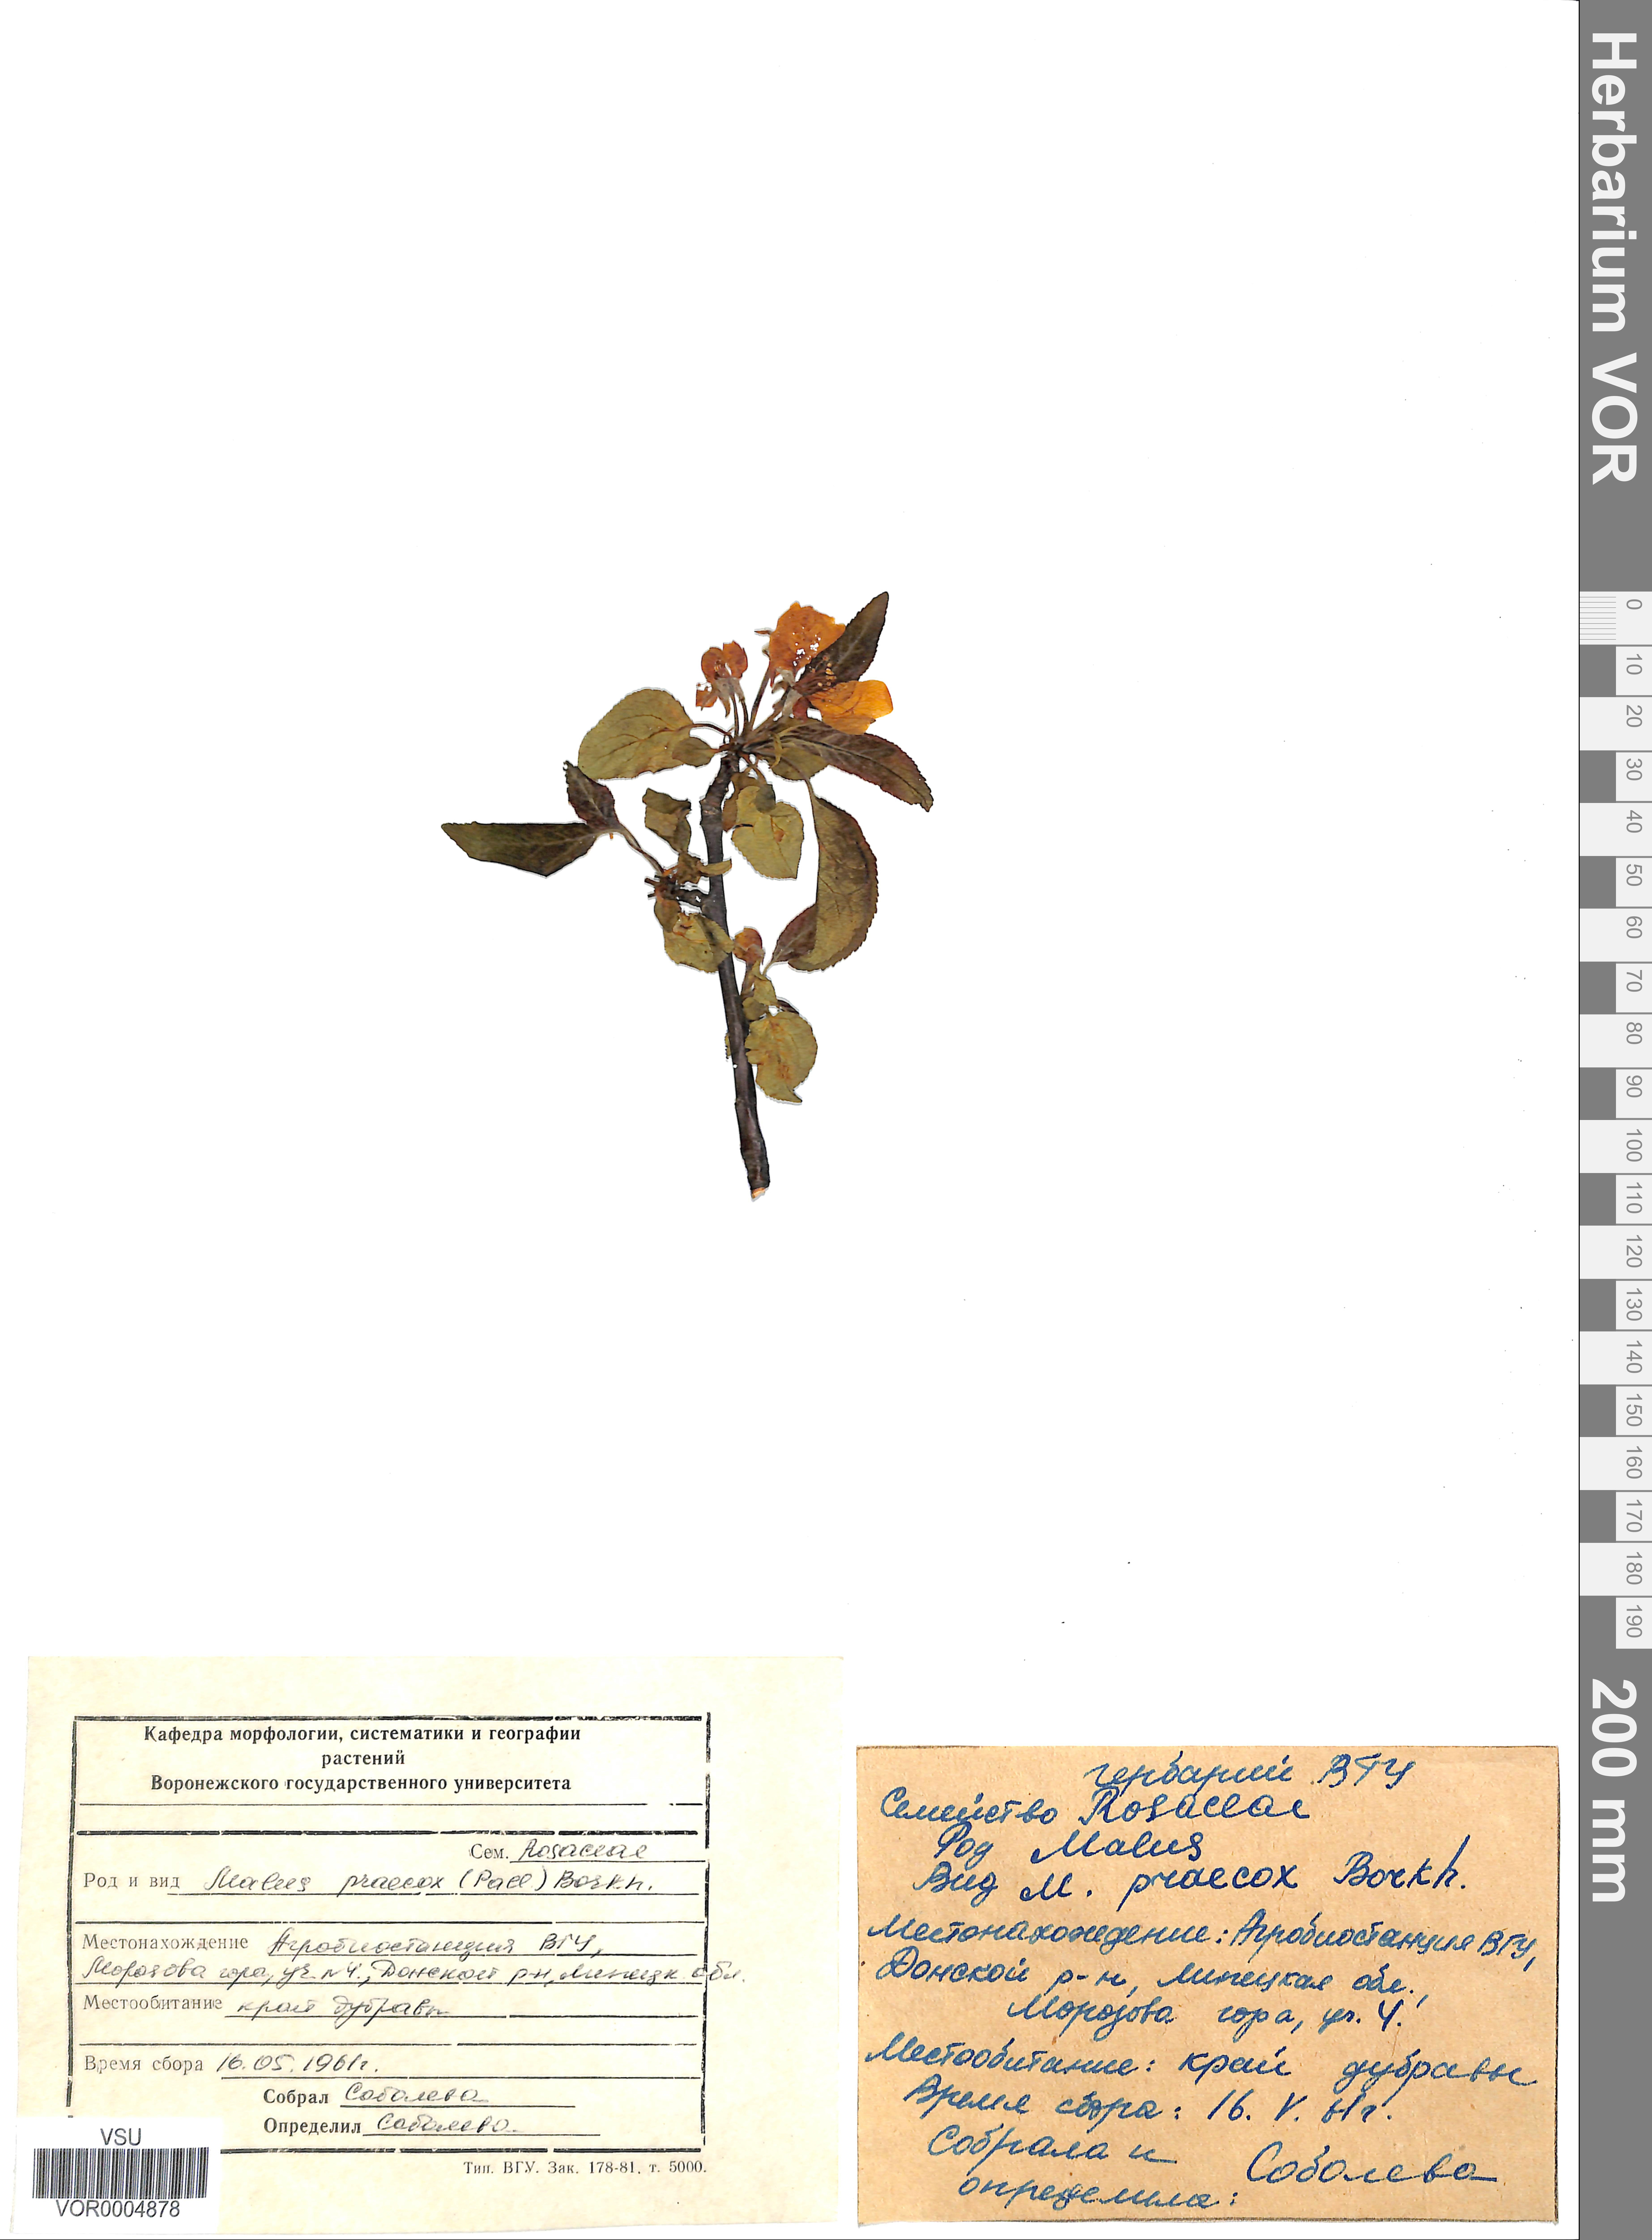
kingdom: Plantae
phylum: Tracheophyta
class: Magnoliopsida
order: Rosales
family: Rosaceae
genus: Malus
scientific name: Malus domestica
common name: Apple
